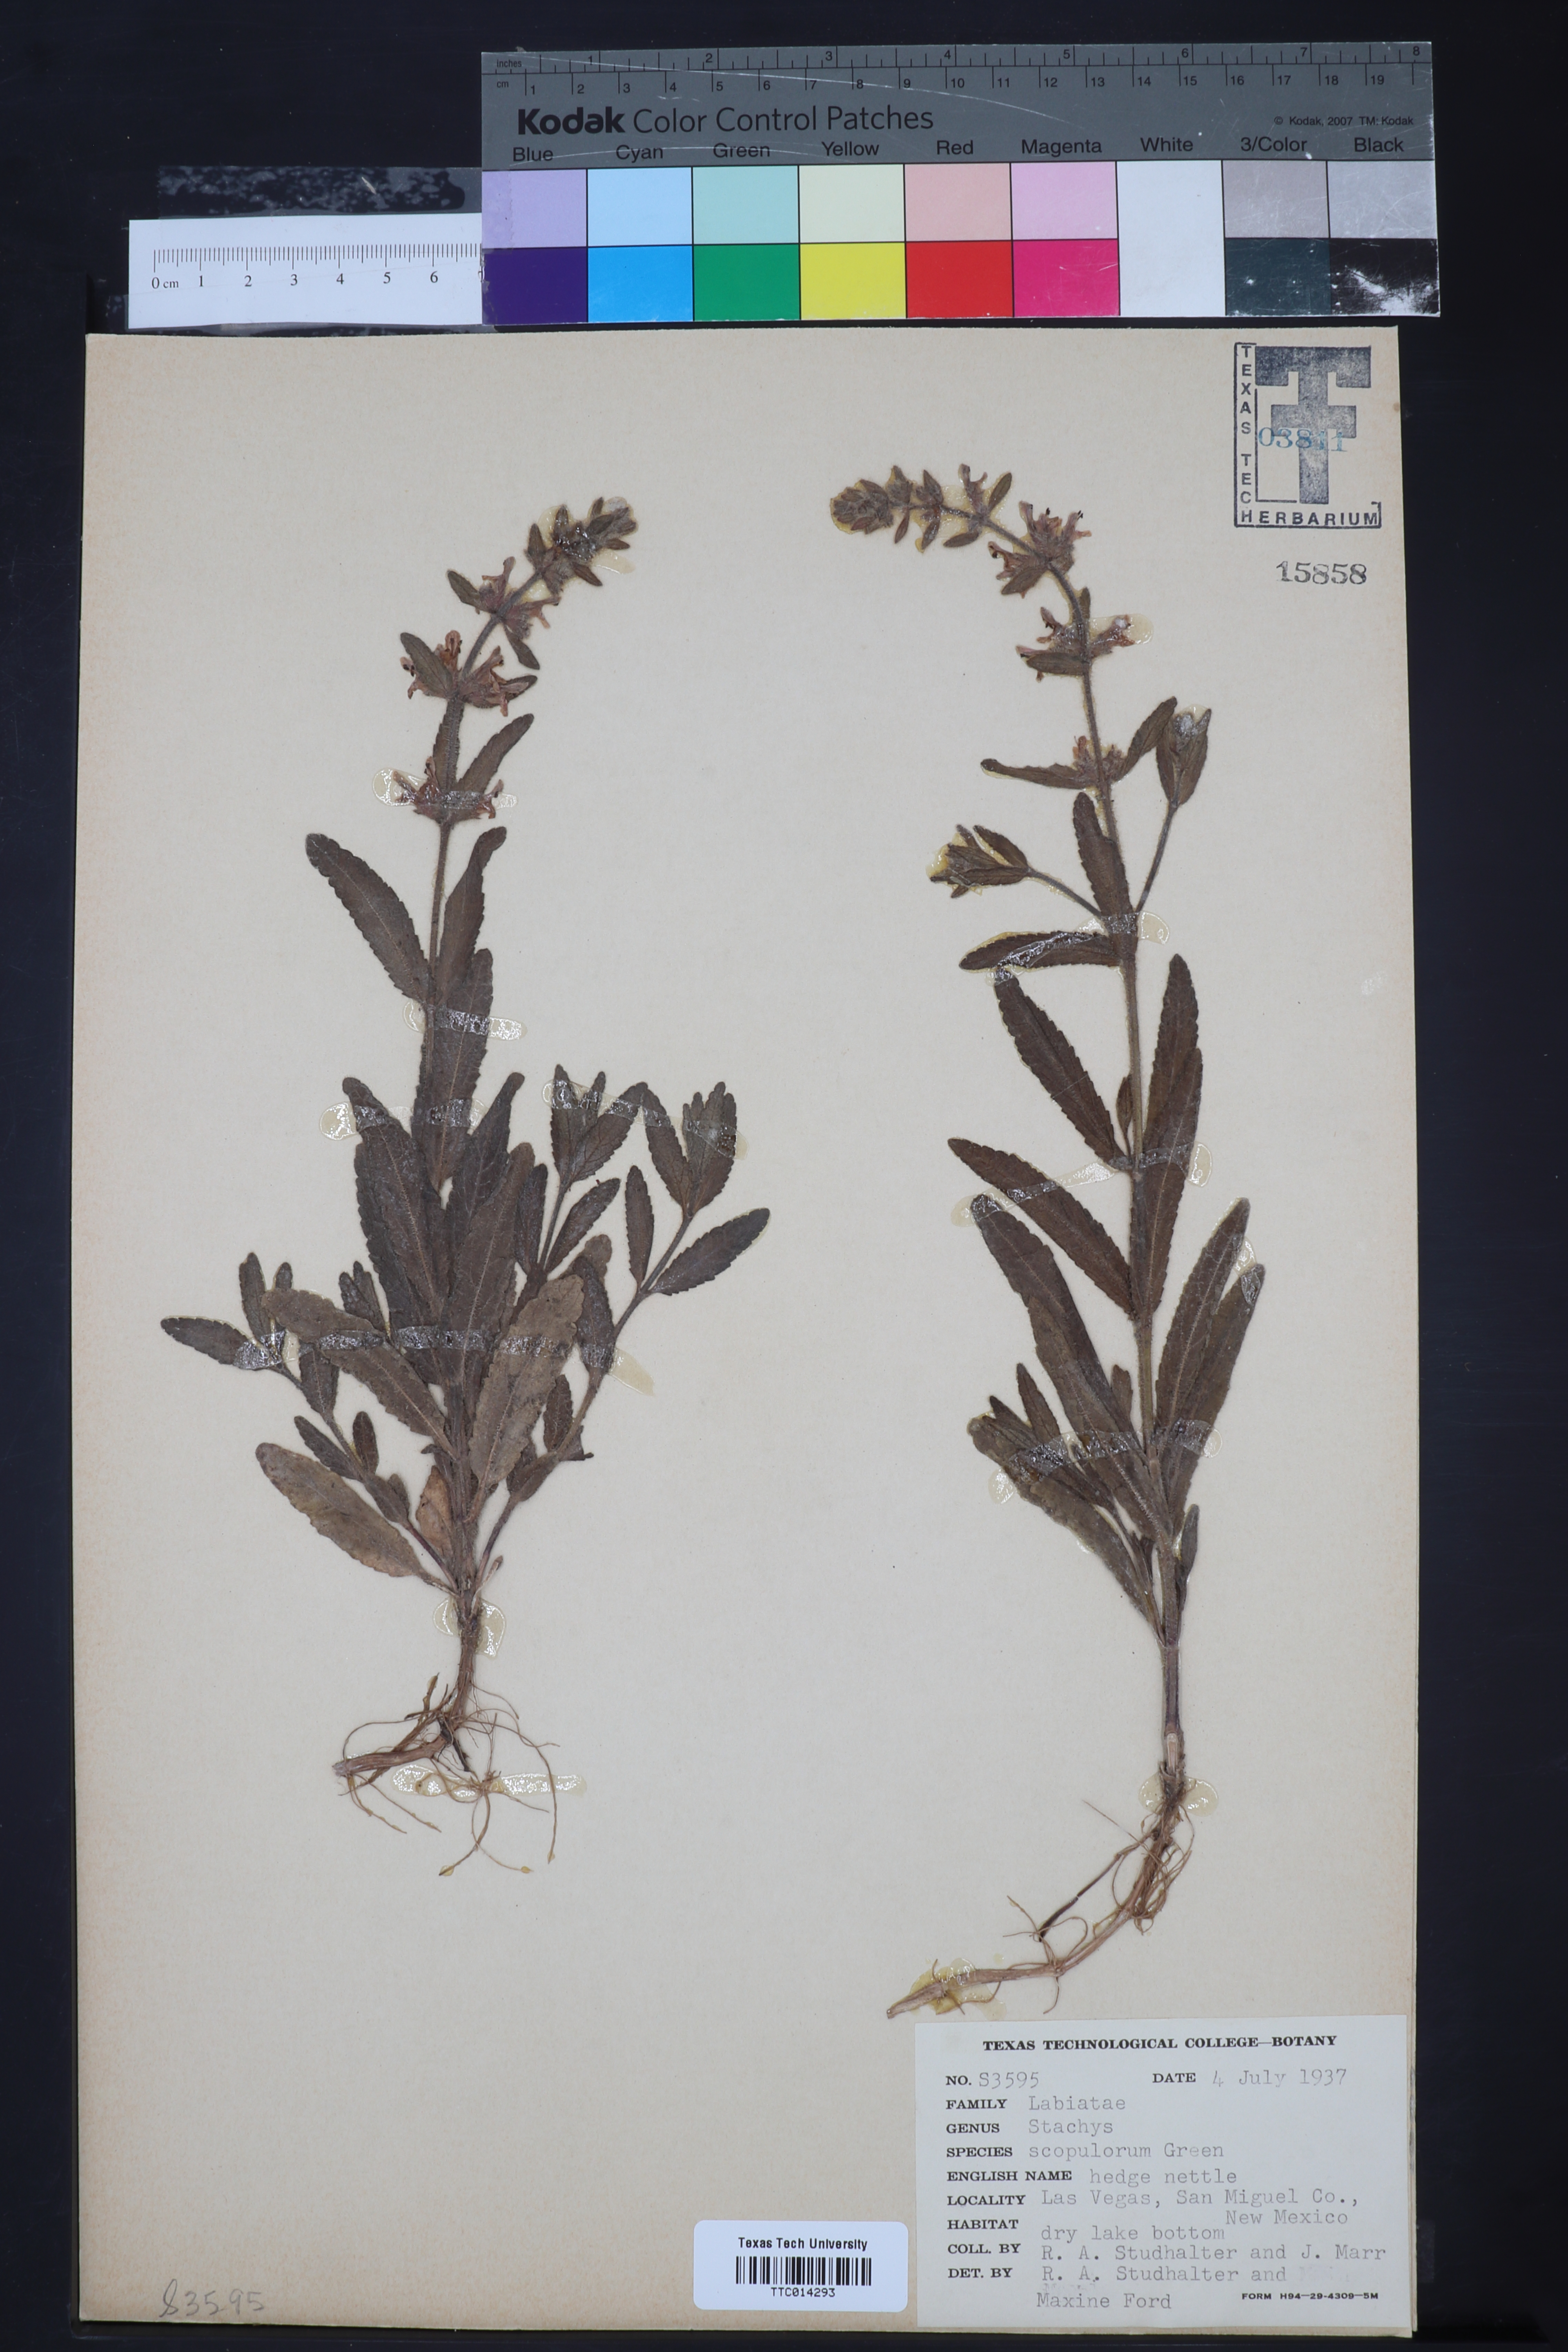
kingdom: Plantae
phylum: Tracheophyta
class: Magnoliopsida
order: Lamiales
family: Lamiaceae
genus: Stachys
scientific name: Stachys pilosa
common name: Hairy hedge-nettle
